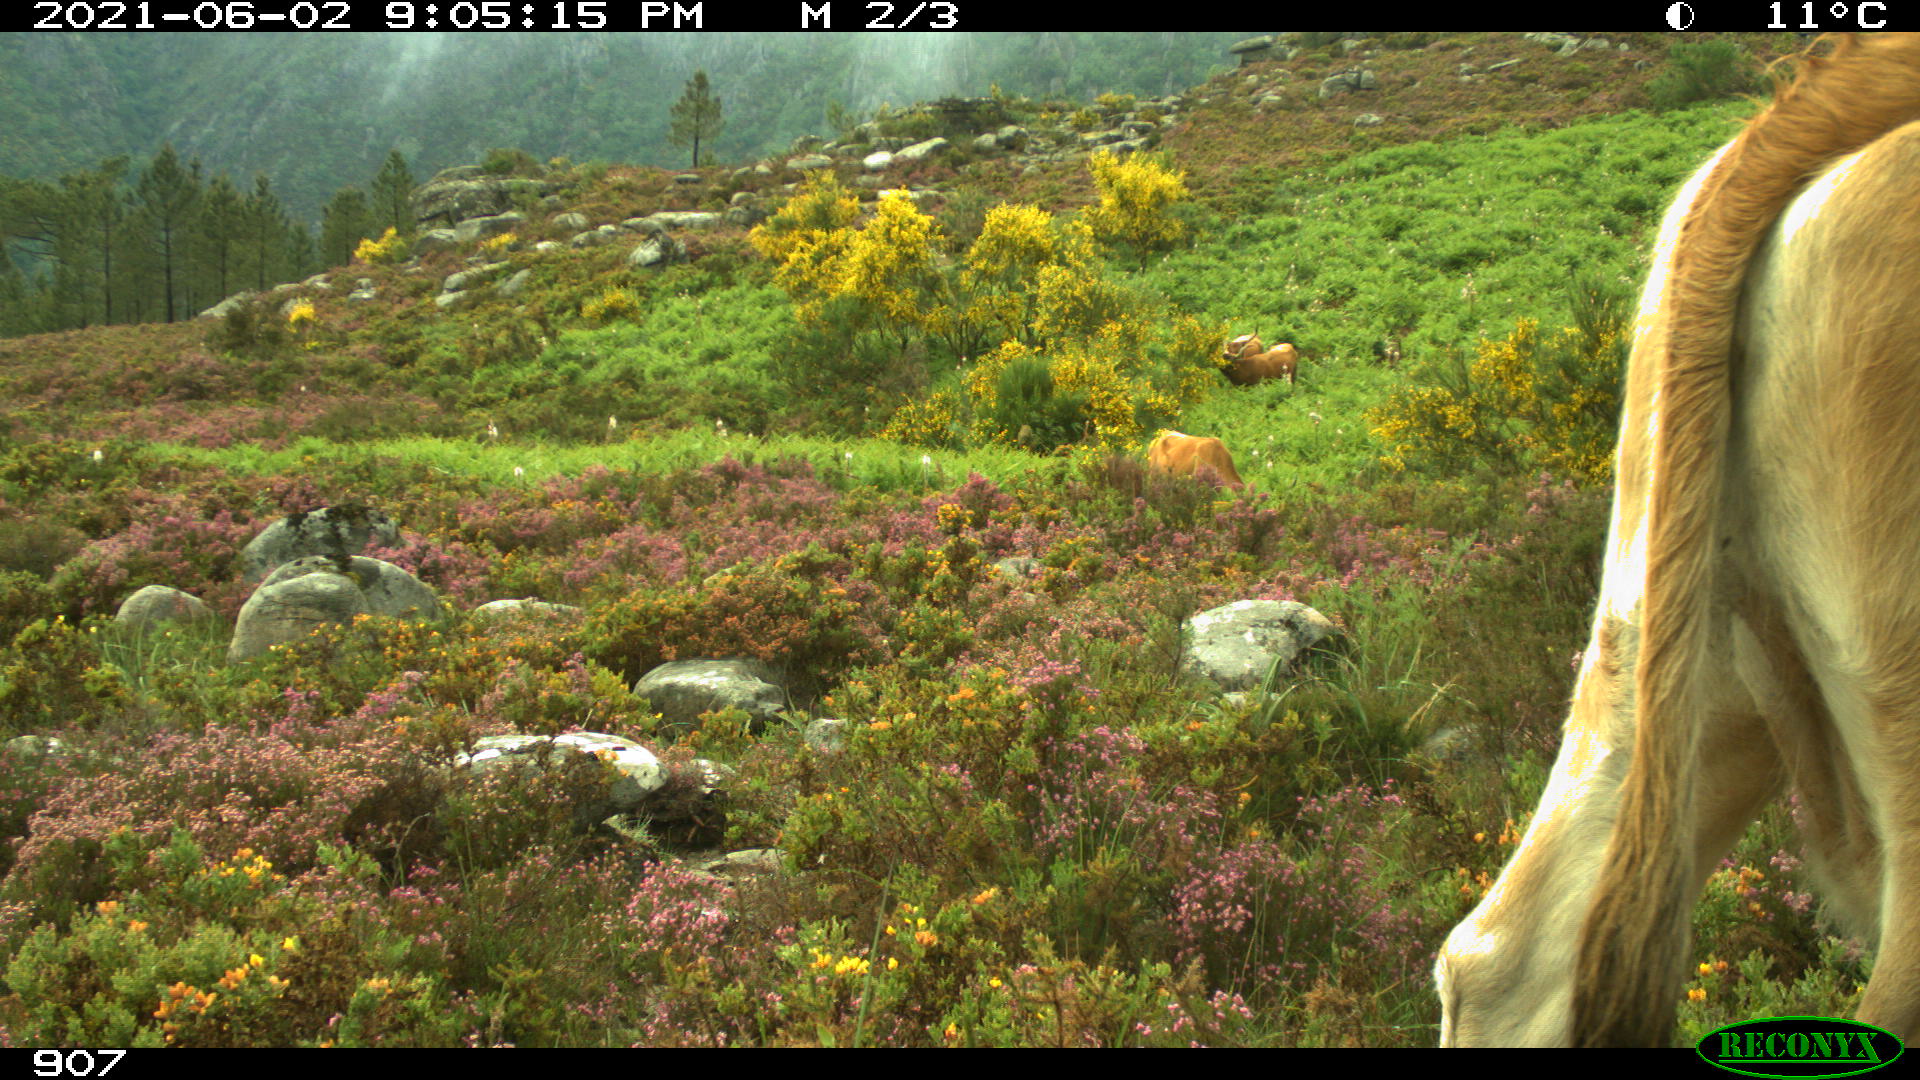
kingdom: Animalia
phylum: Chordata
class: Mammalia
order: Artiodactyla
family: Bovidae
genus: Bos
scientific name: Bos taurus
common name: Domesticated cattle
